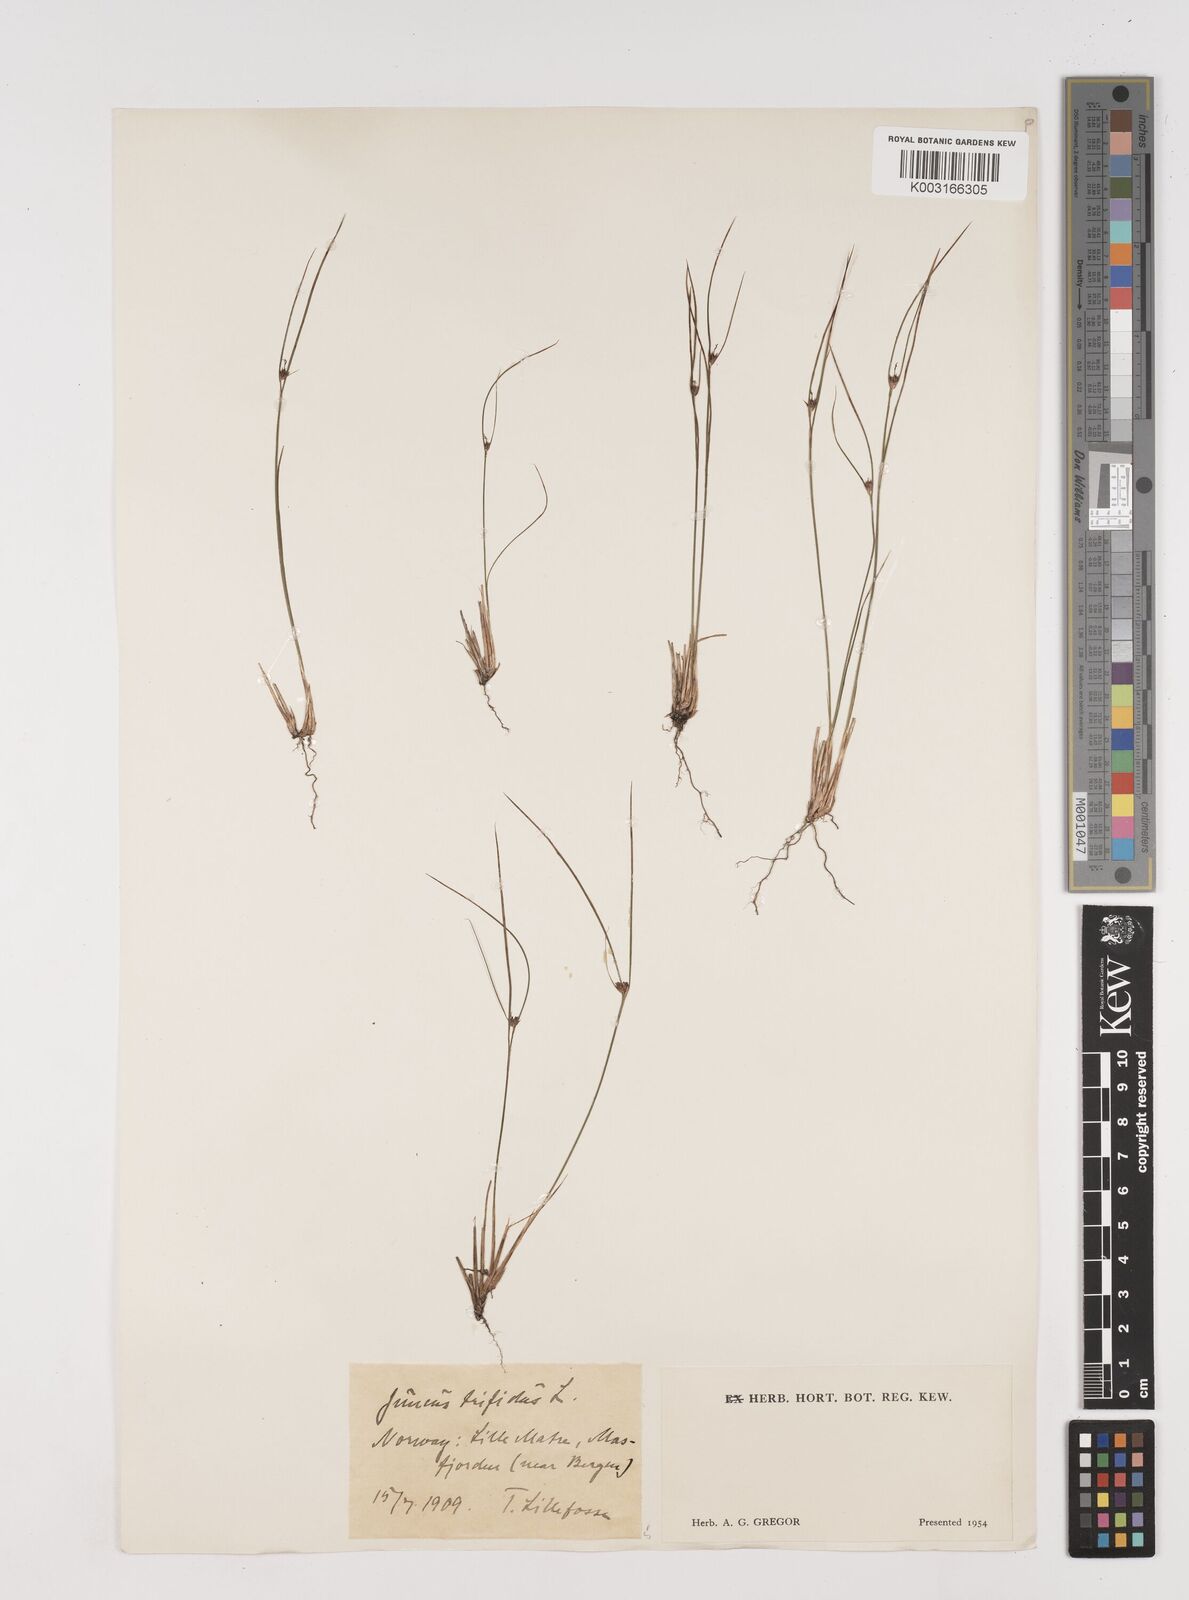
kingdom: Plantae
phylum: Tracheophyta
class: Liliopsida
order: Poales
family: Juncaceae
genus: Oreojuncus
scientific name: Oreojuncus trifidus
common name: Highland rush
